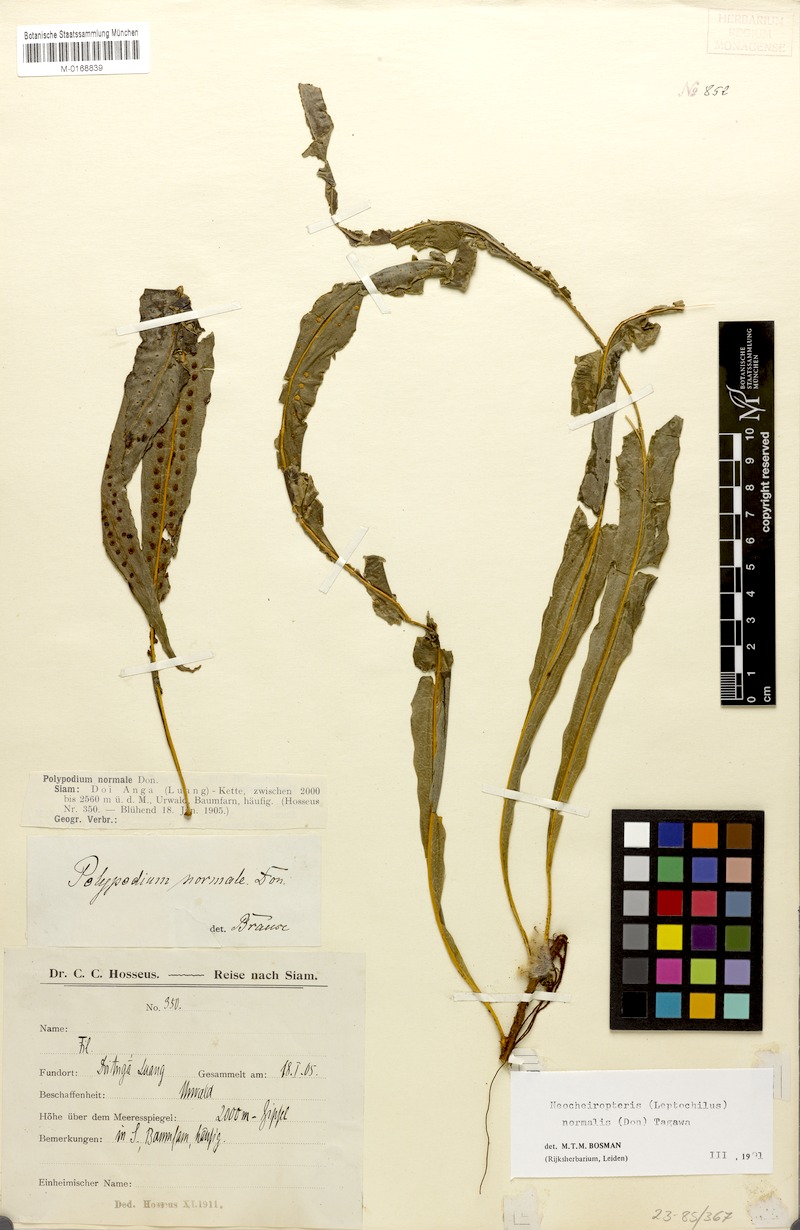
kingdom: Plantae
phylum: Tracheophyta
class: Polypodiopsida
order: Polypodiales
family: Polypodiaceae
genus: Lepisorus
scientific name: Lepisorus normalis
